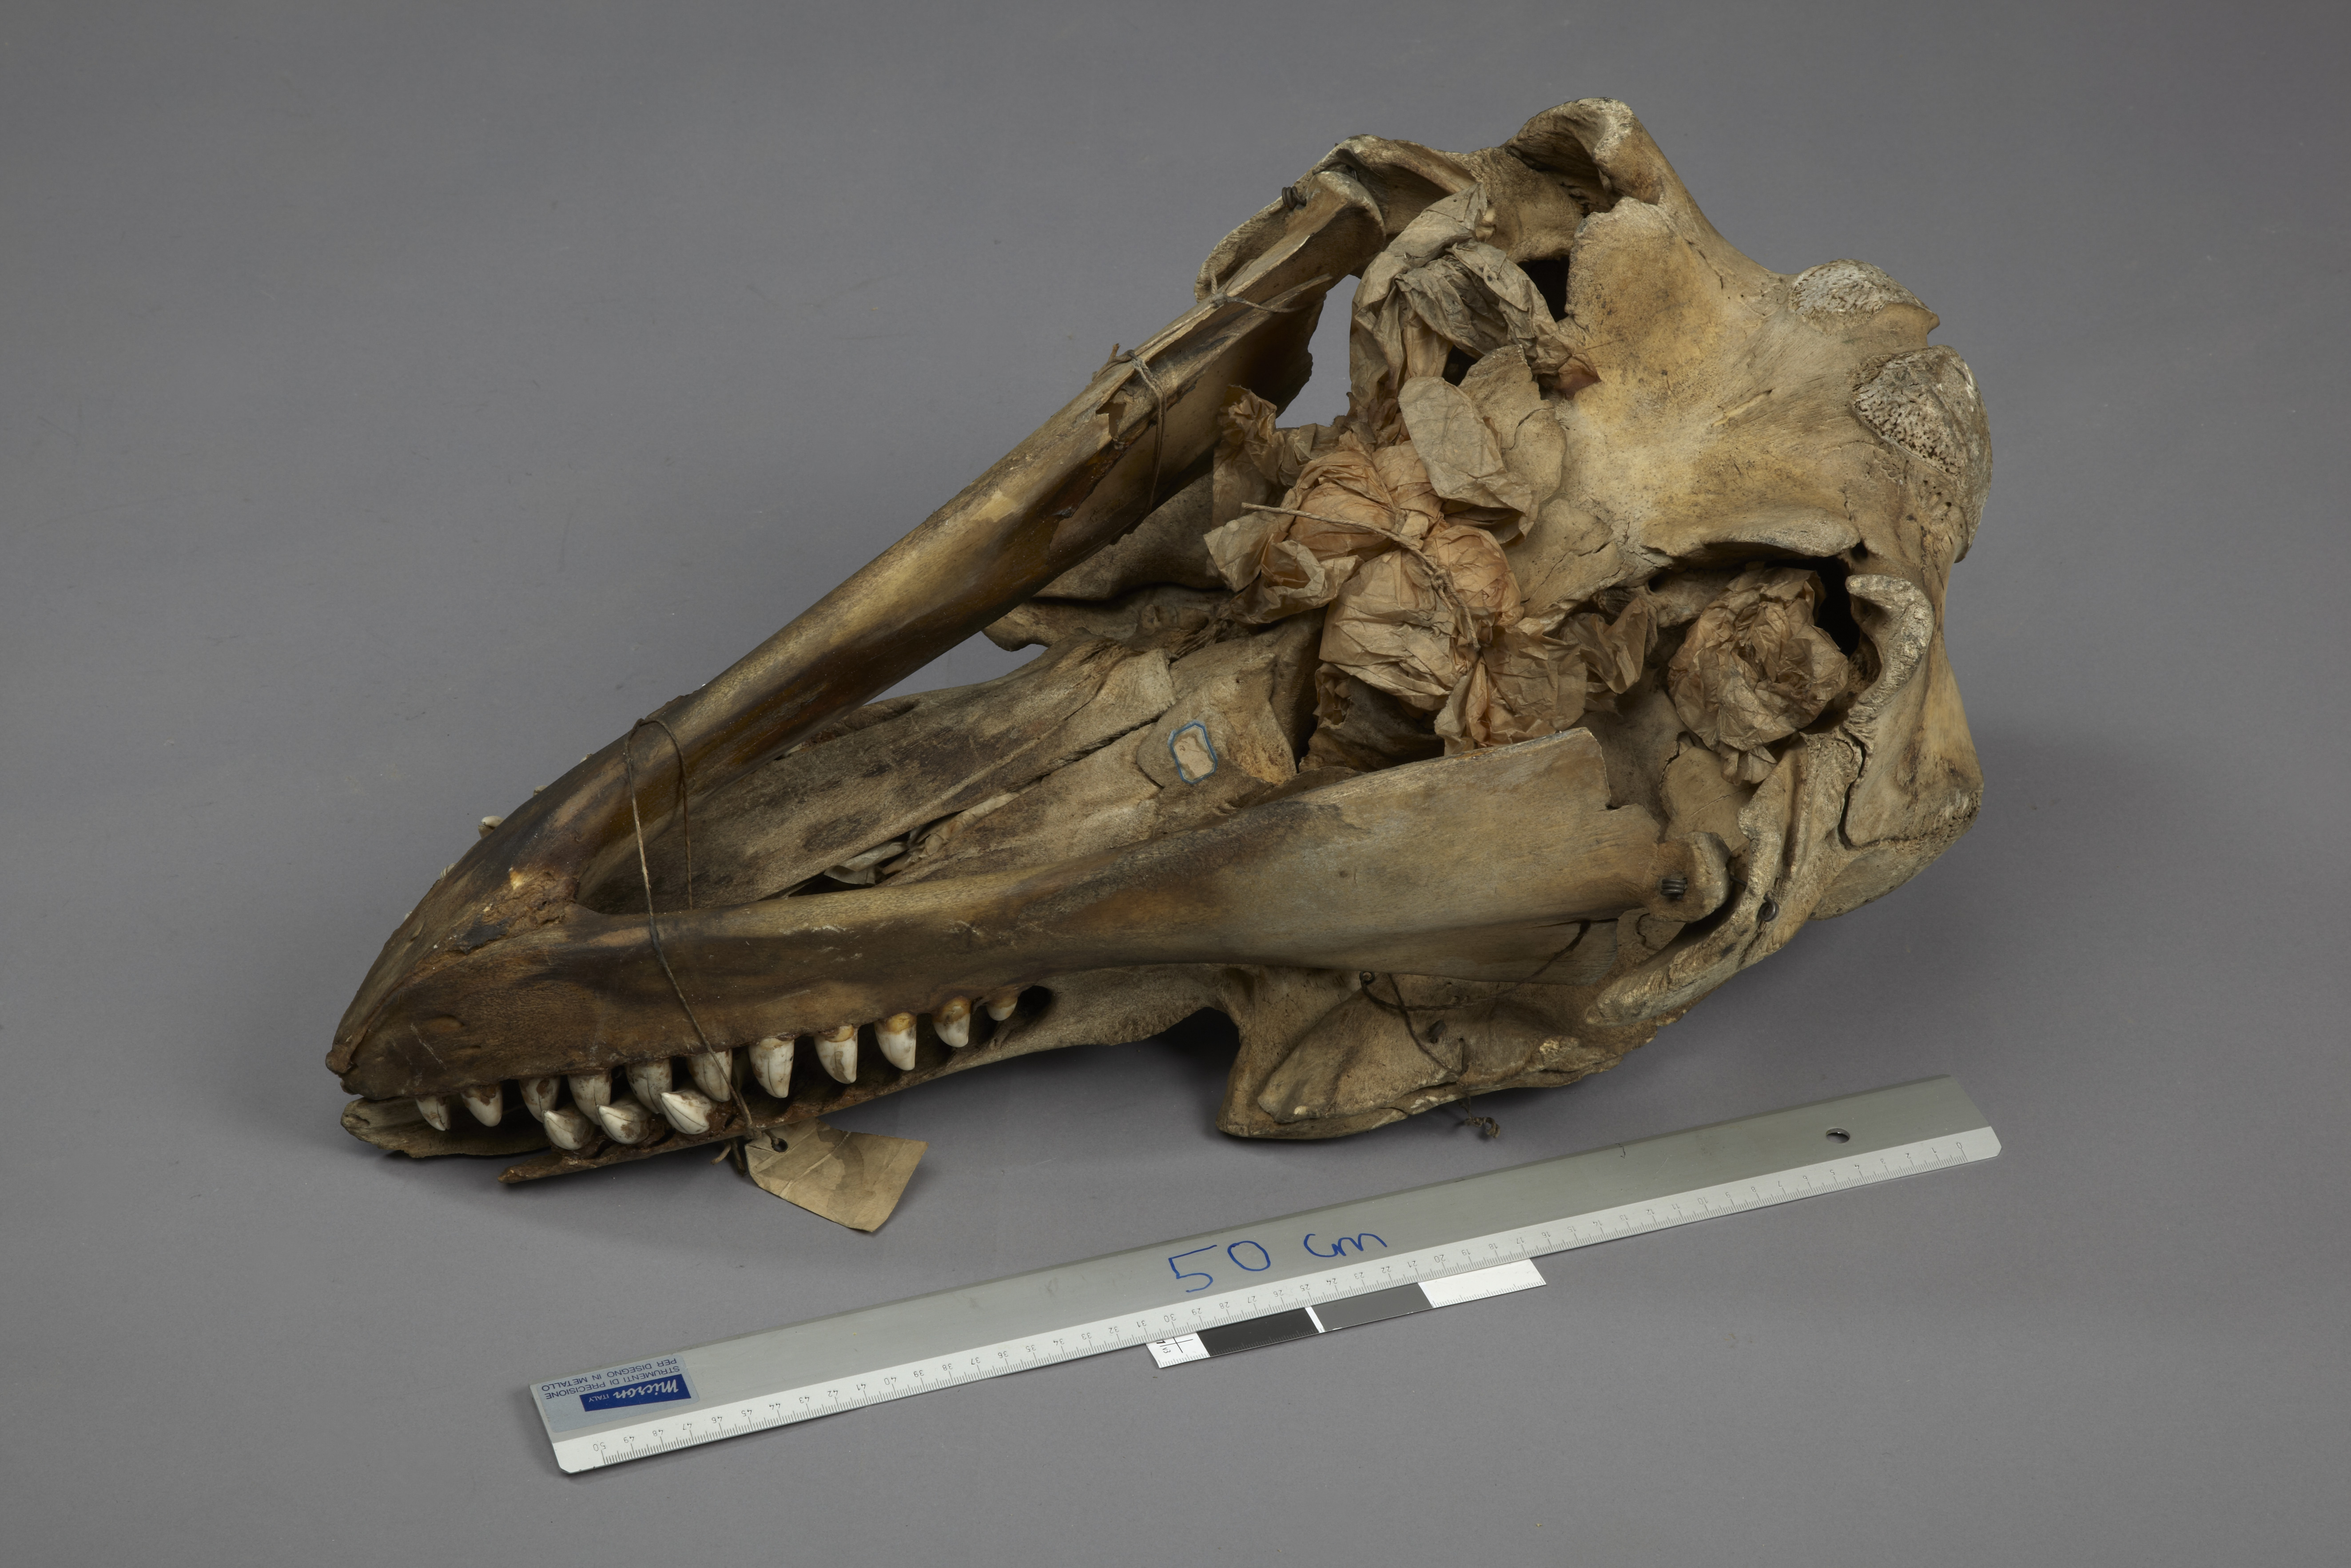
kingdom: Animalia
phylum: Chordata
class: Mammalia
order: Cetacea
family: Delphinidae
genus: Orcinus
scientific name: Orcinus orca
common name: Killer whale
